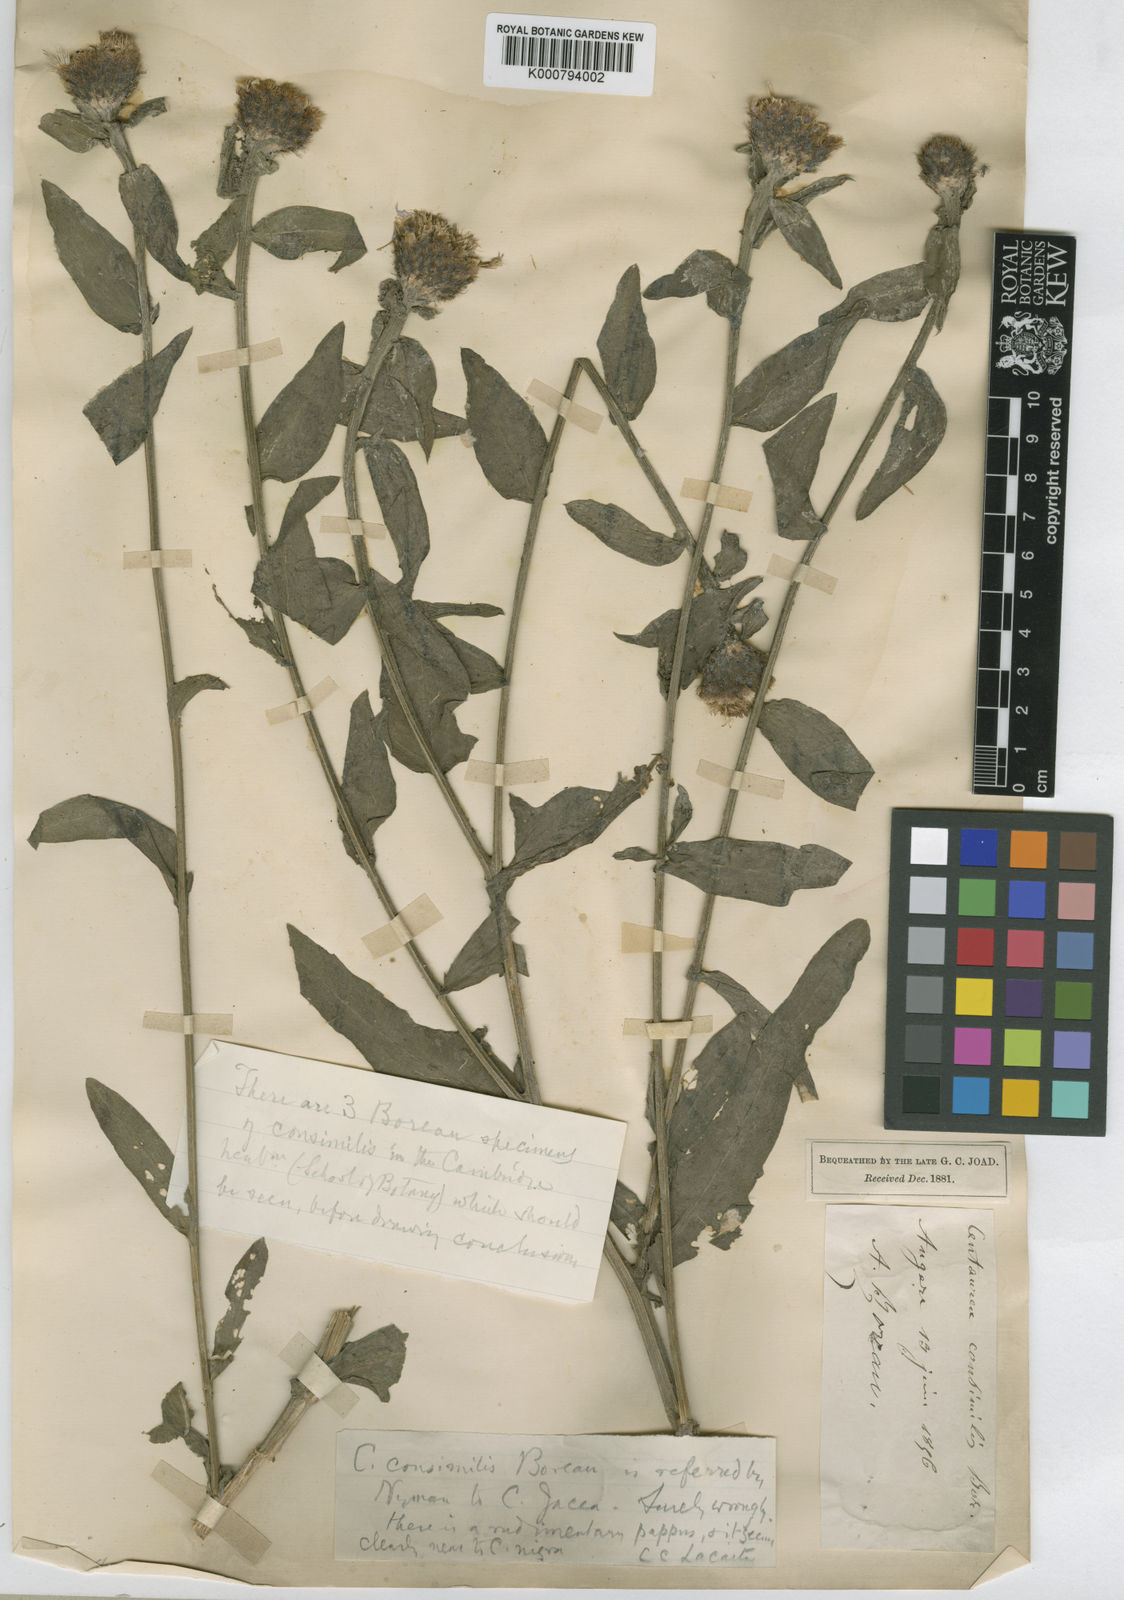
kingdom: Plantae
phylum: Tracheophyta
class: Magnoliopsida
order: Asterales
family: Asteraceae
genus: Centaurea
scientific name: Centaurea nigra
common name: Lesser knapweed
